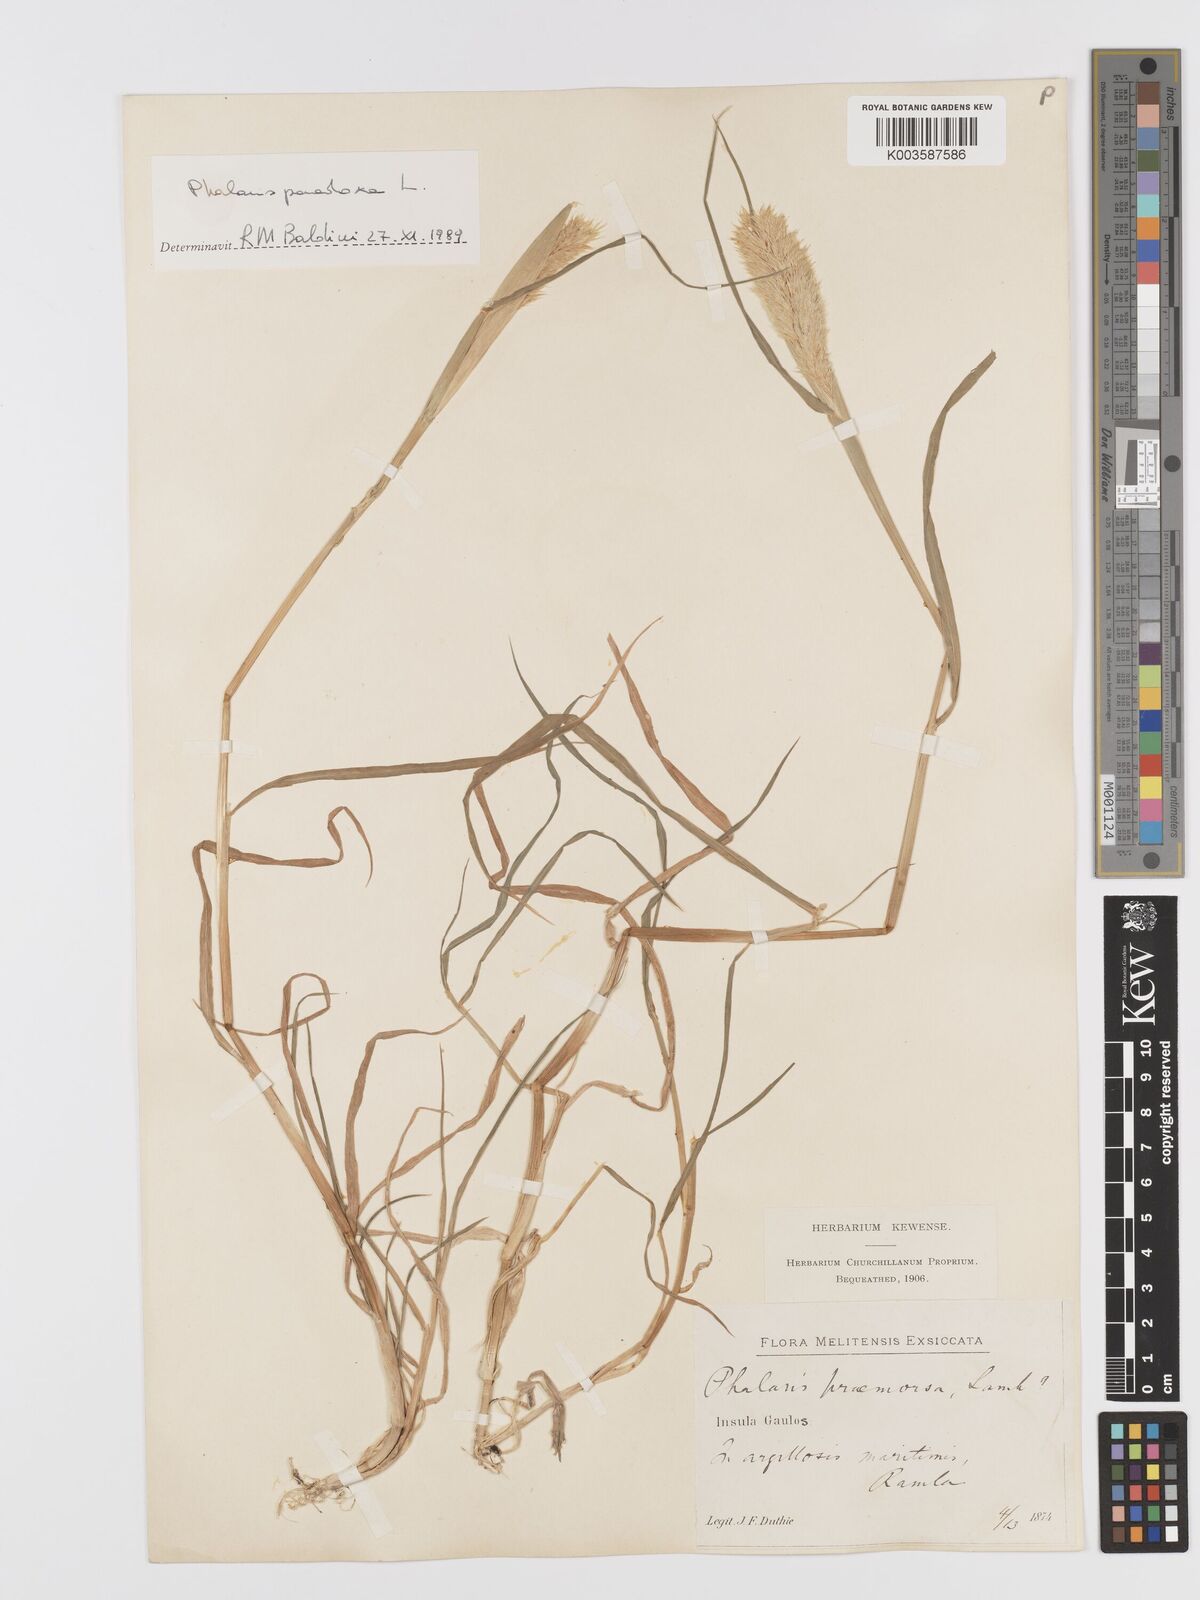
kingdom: Plantae
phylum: Tracheophyta
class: Liliopsida
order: Poales
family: Poaceae
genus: Phalaris
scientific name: Phalaris paradoxa
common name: Awned canary-grass
